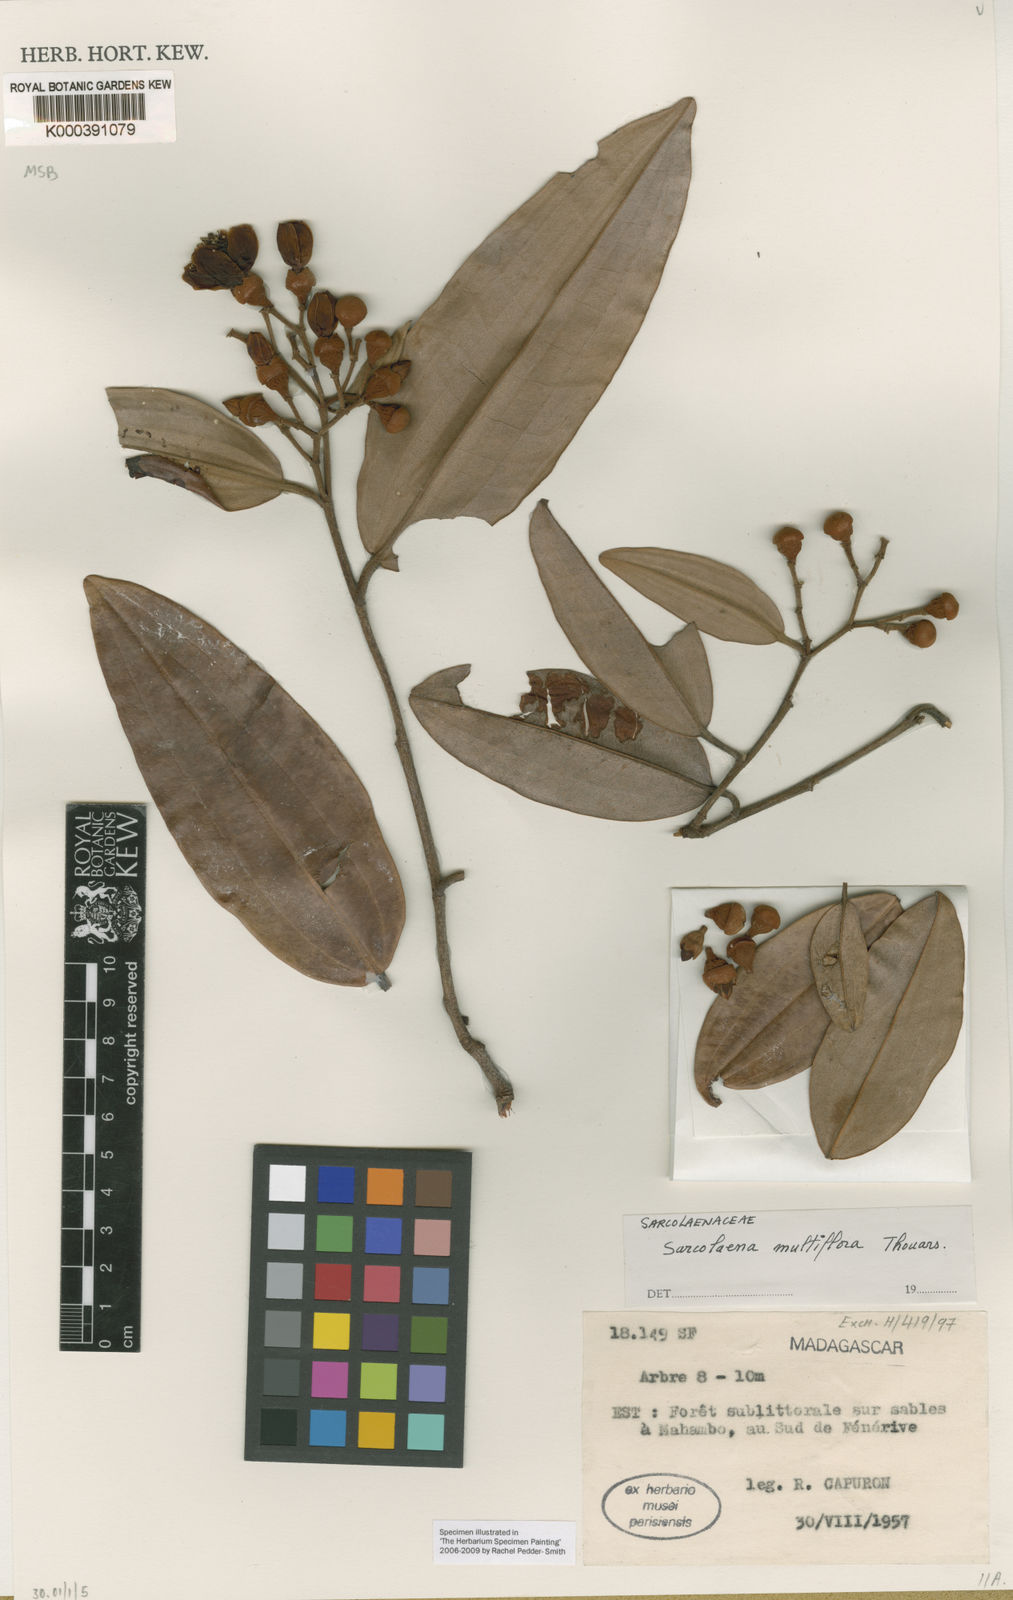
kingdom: Plantae
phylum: Tracheophyta
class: Magnoliopsida
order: Malvales
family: Sarcolaenaceae
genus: Sarcolaena
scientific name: Sarcolaena multiflora
